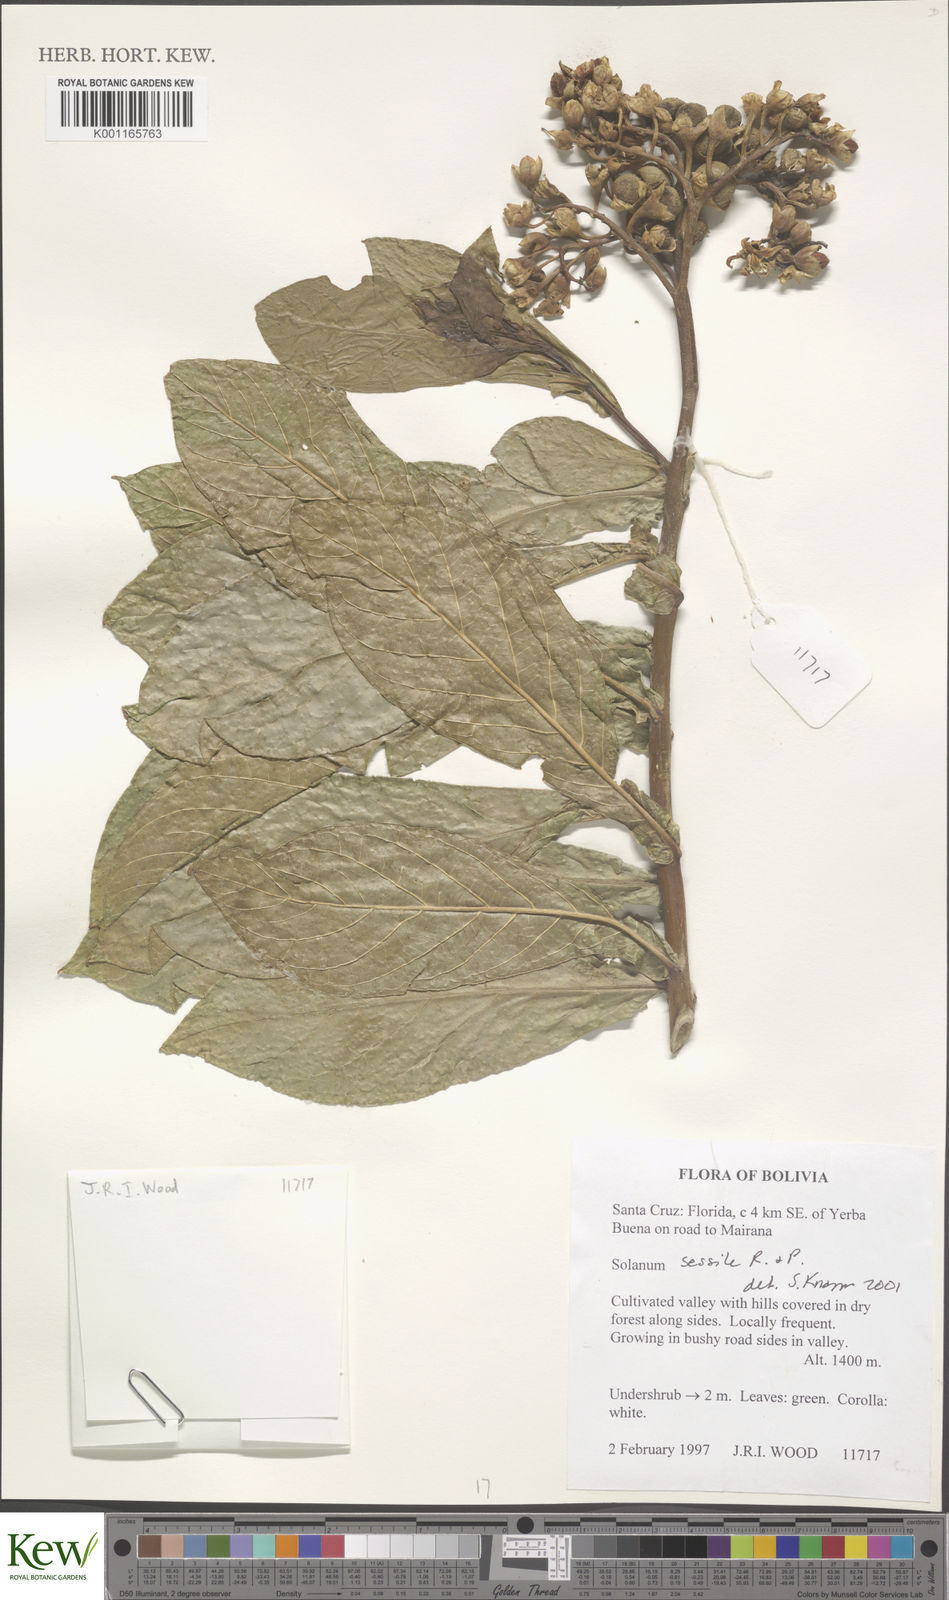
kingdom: Plantae
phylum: Tracheophyta
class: Magnoliopsida
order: Solanales
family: Solanaceae
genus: Solanum
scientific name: Solanum sessile
